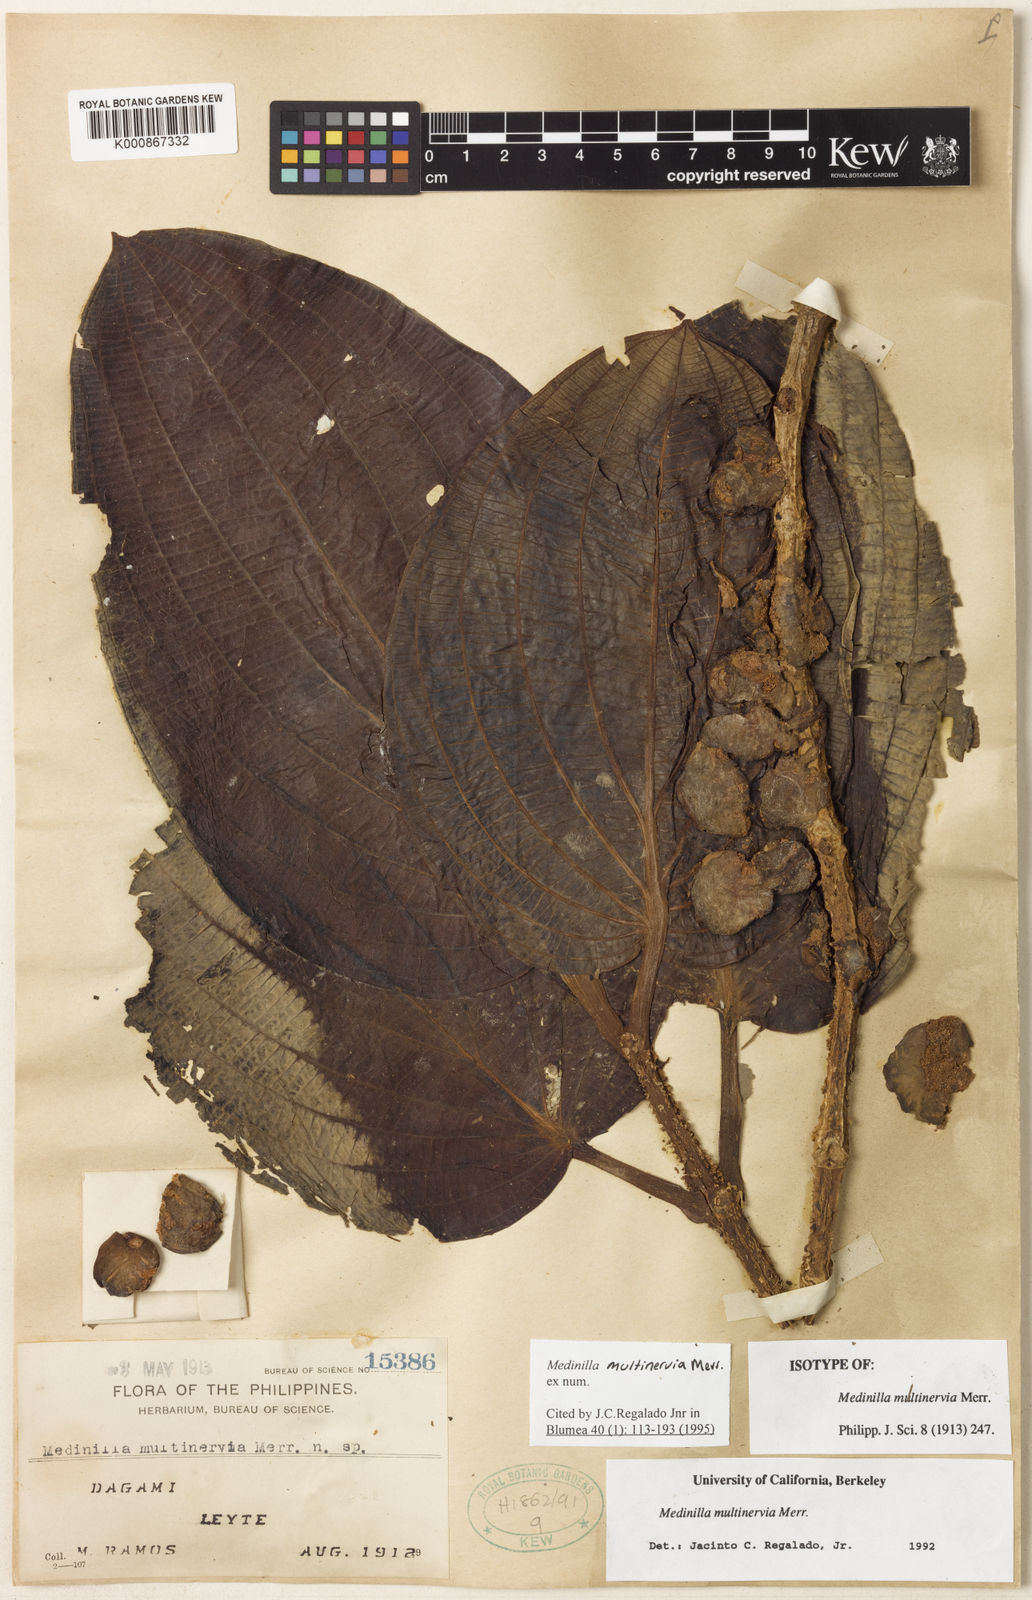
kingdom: Plantae
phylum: Tracheophyta
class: Magnoliopsida
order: Myrtales
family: Melastomataceae
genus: Medinilla
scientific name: Medinilla multinervia
